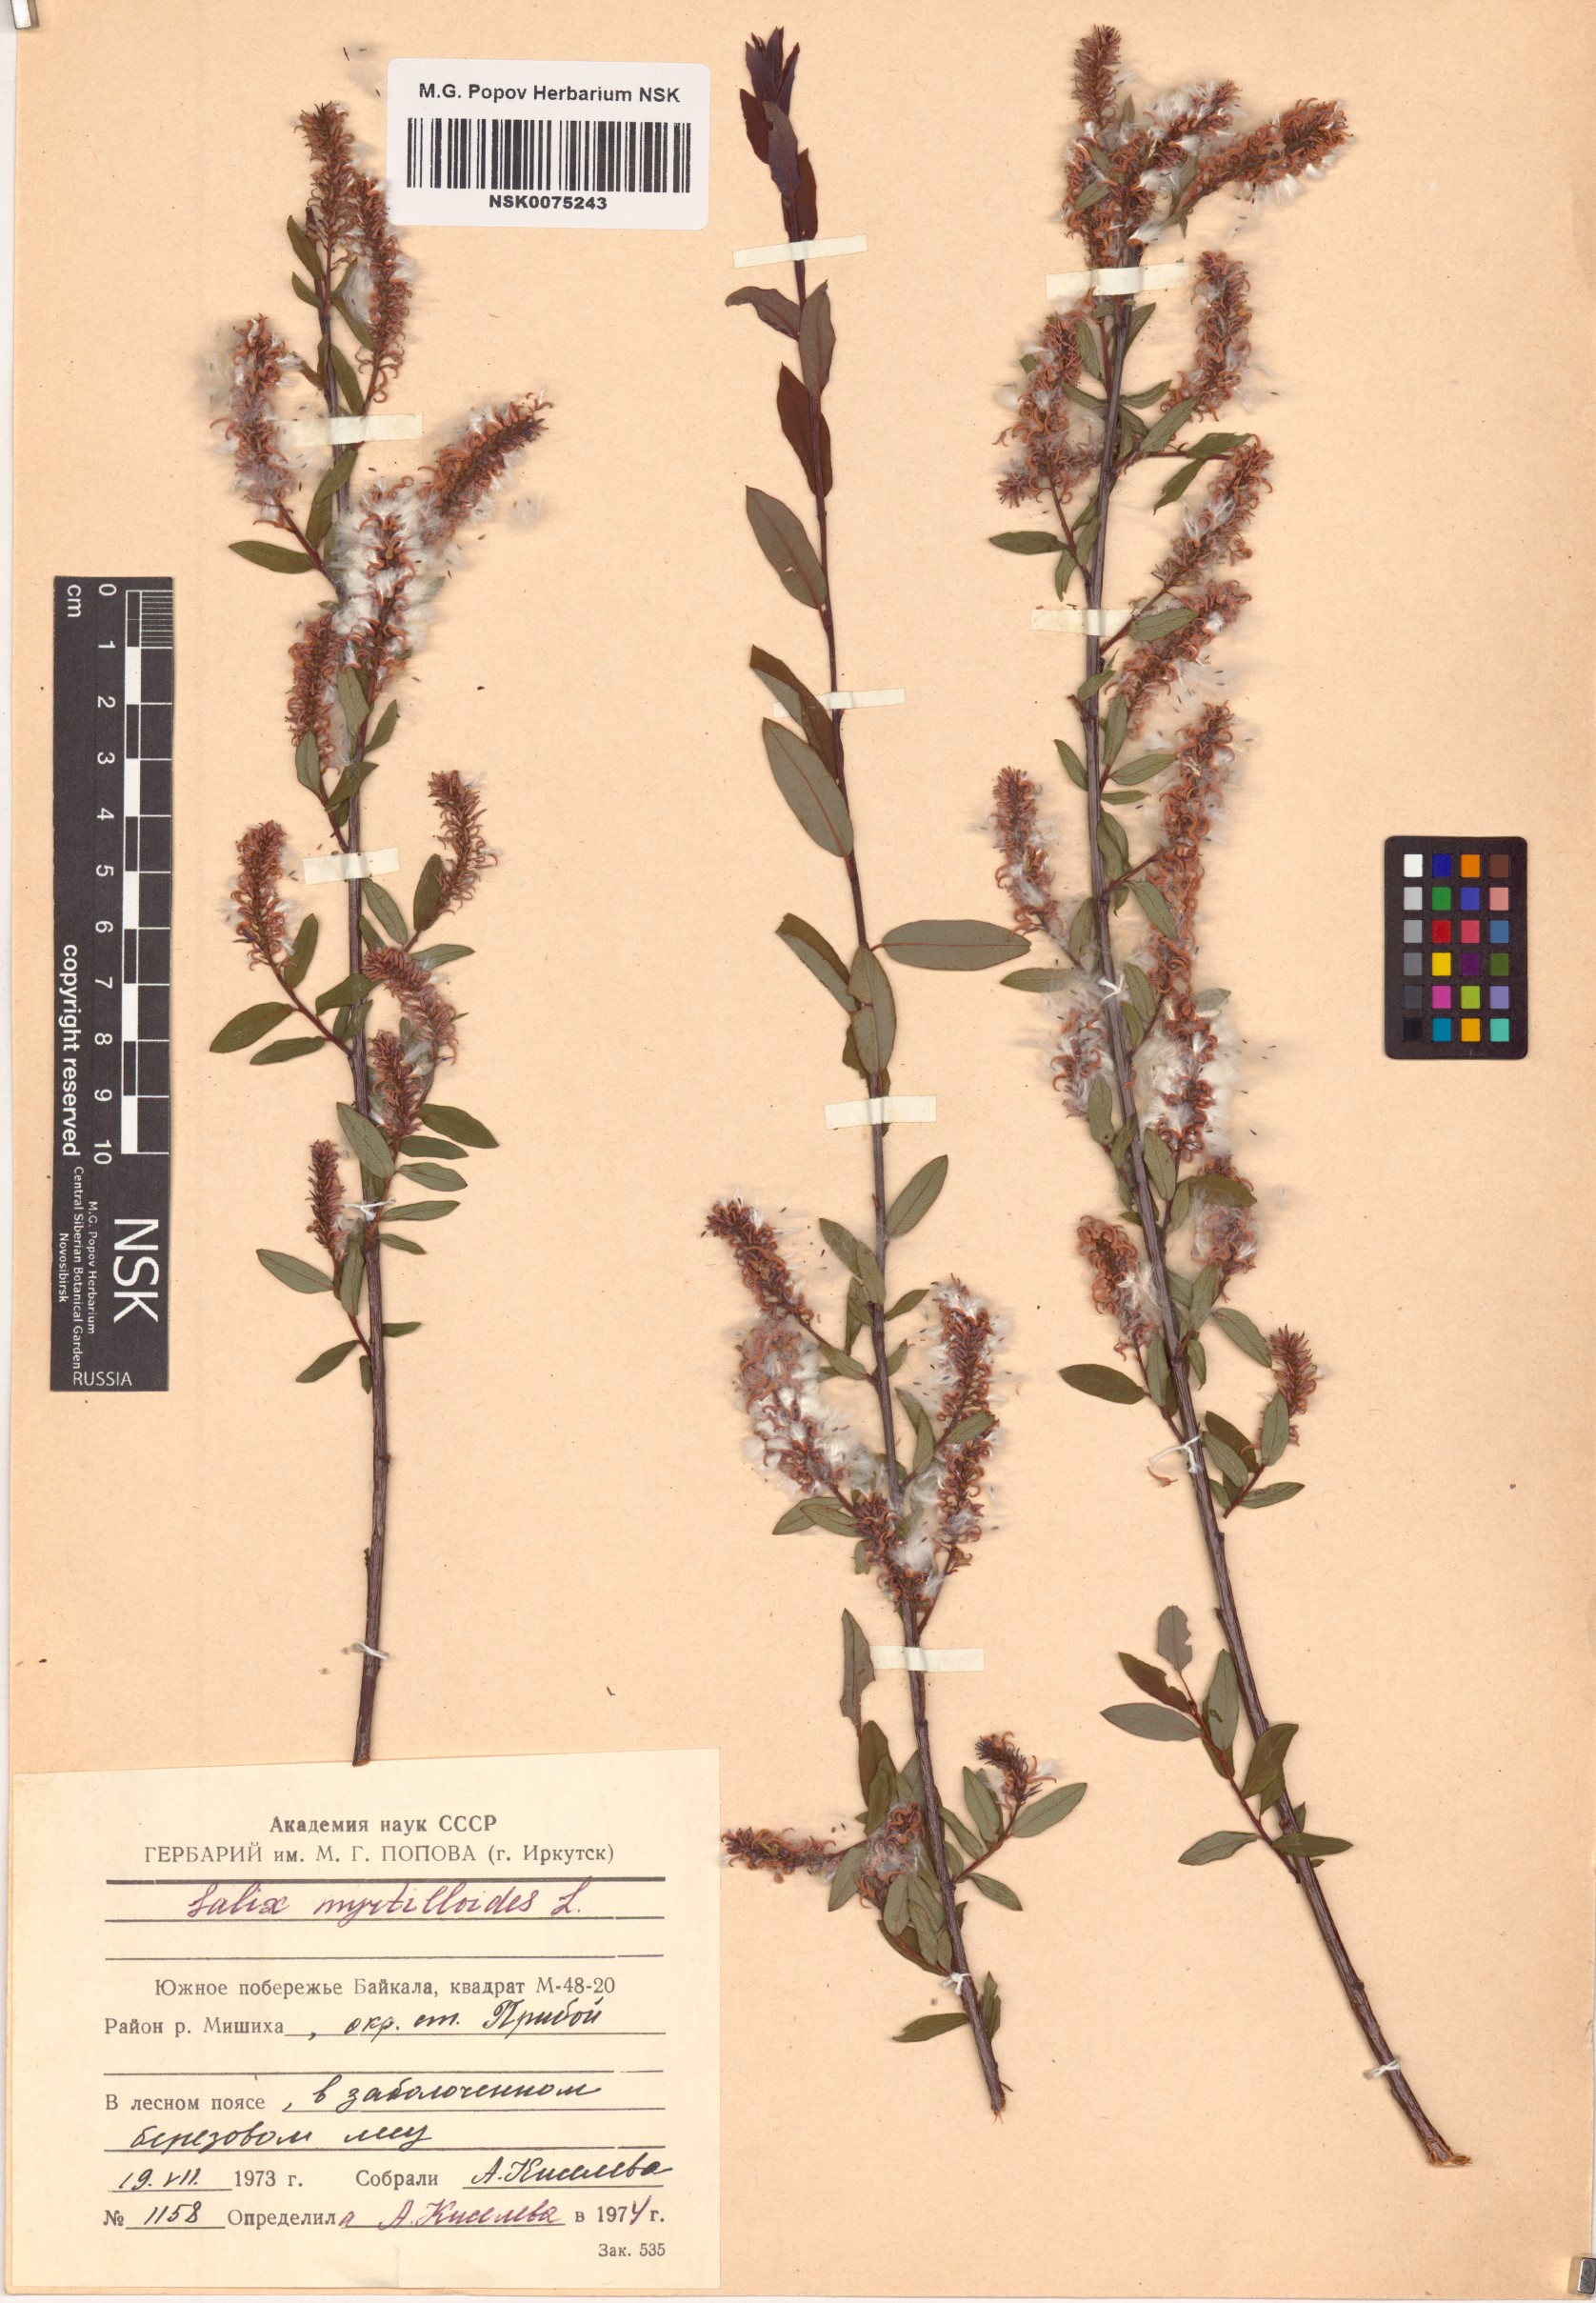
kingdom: Plantae
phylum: Tracheophyta
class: Magnoliopsida
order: Malpighiales
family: Salicaceae
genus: Salix
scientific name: Salix myrtilloides
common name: Myrtle-leaved willow
